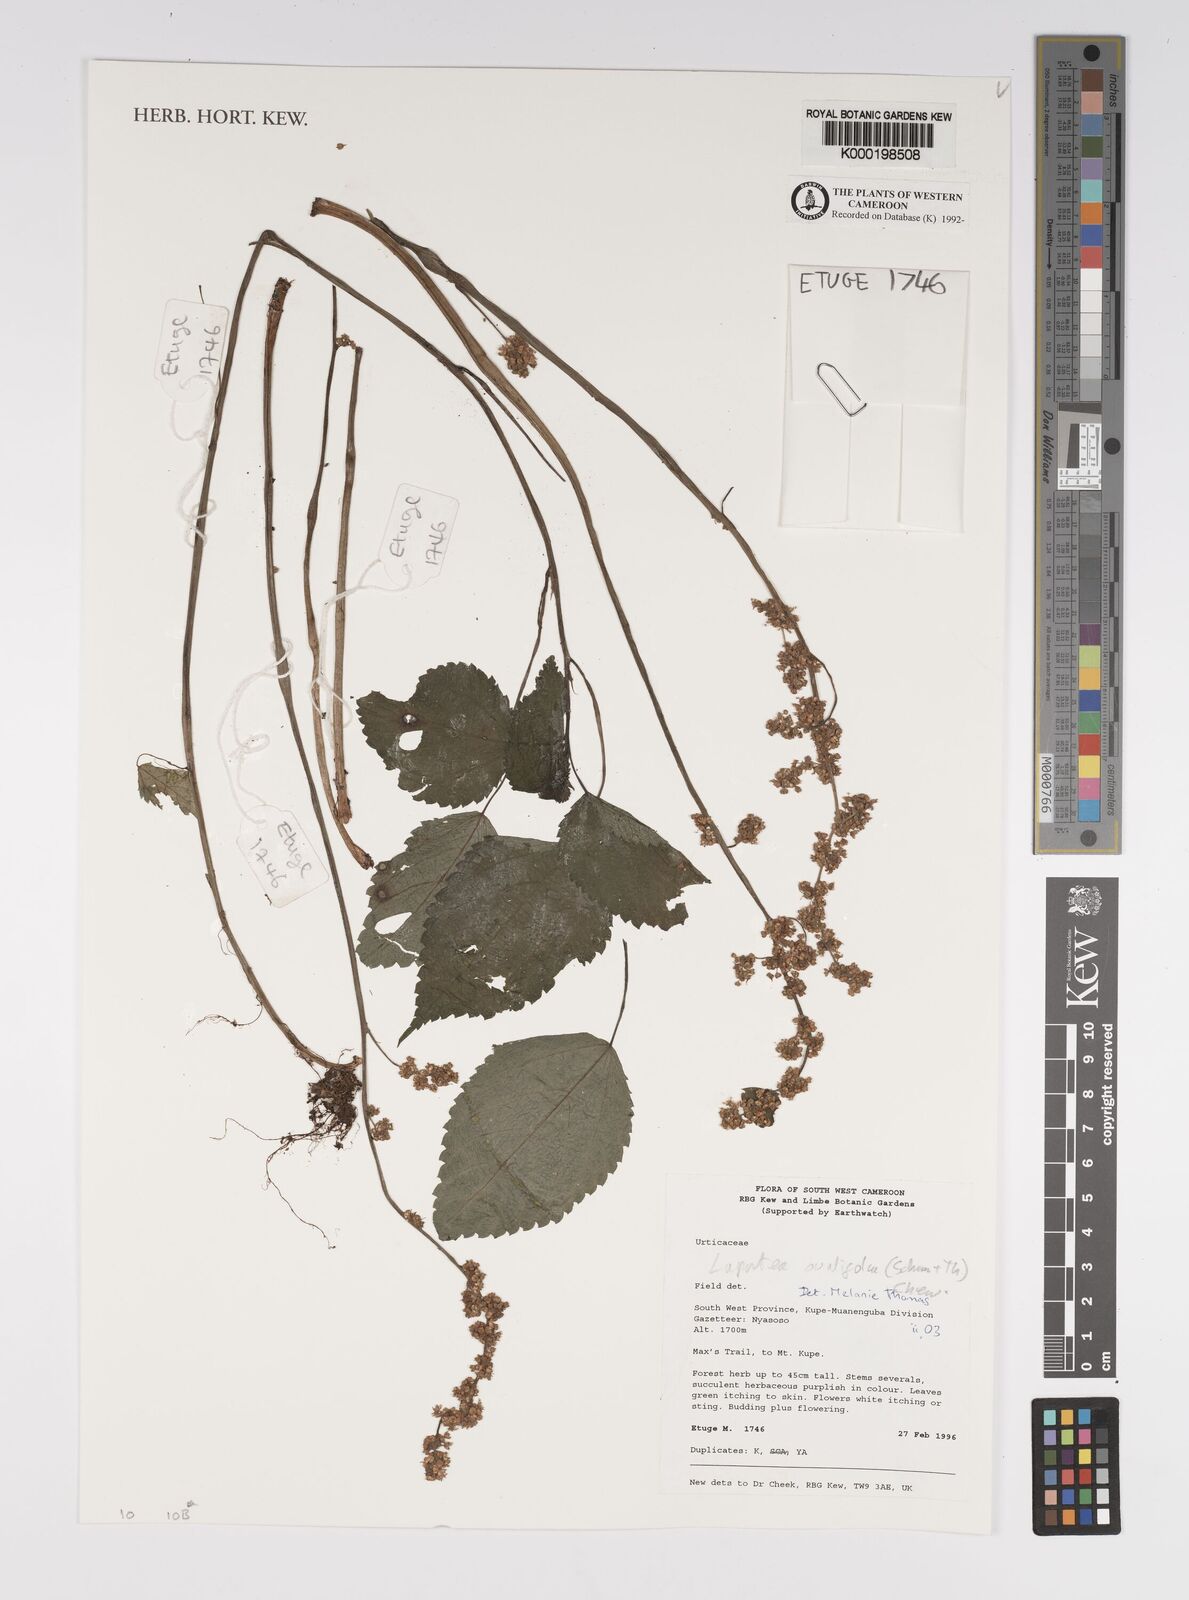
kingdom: Plantae
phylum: Tracheophyta
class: Magnoliopsida
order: Rosales
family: Urticaceae
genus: Laportea
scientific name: Laportea ovalifolia
